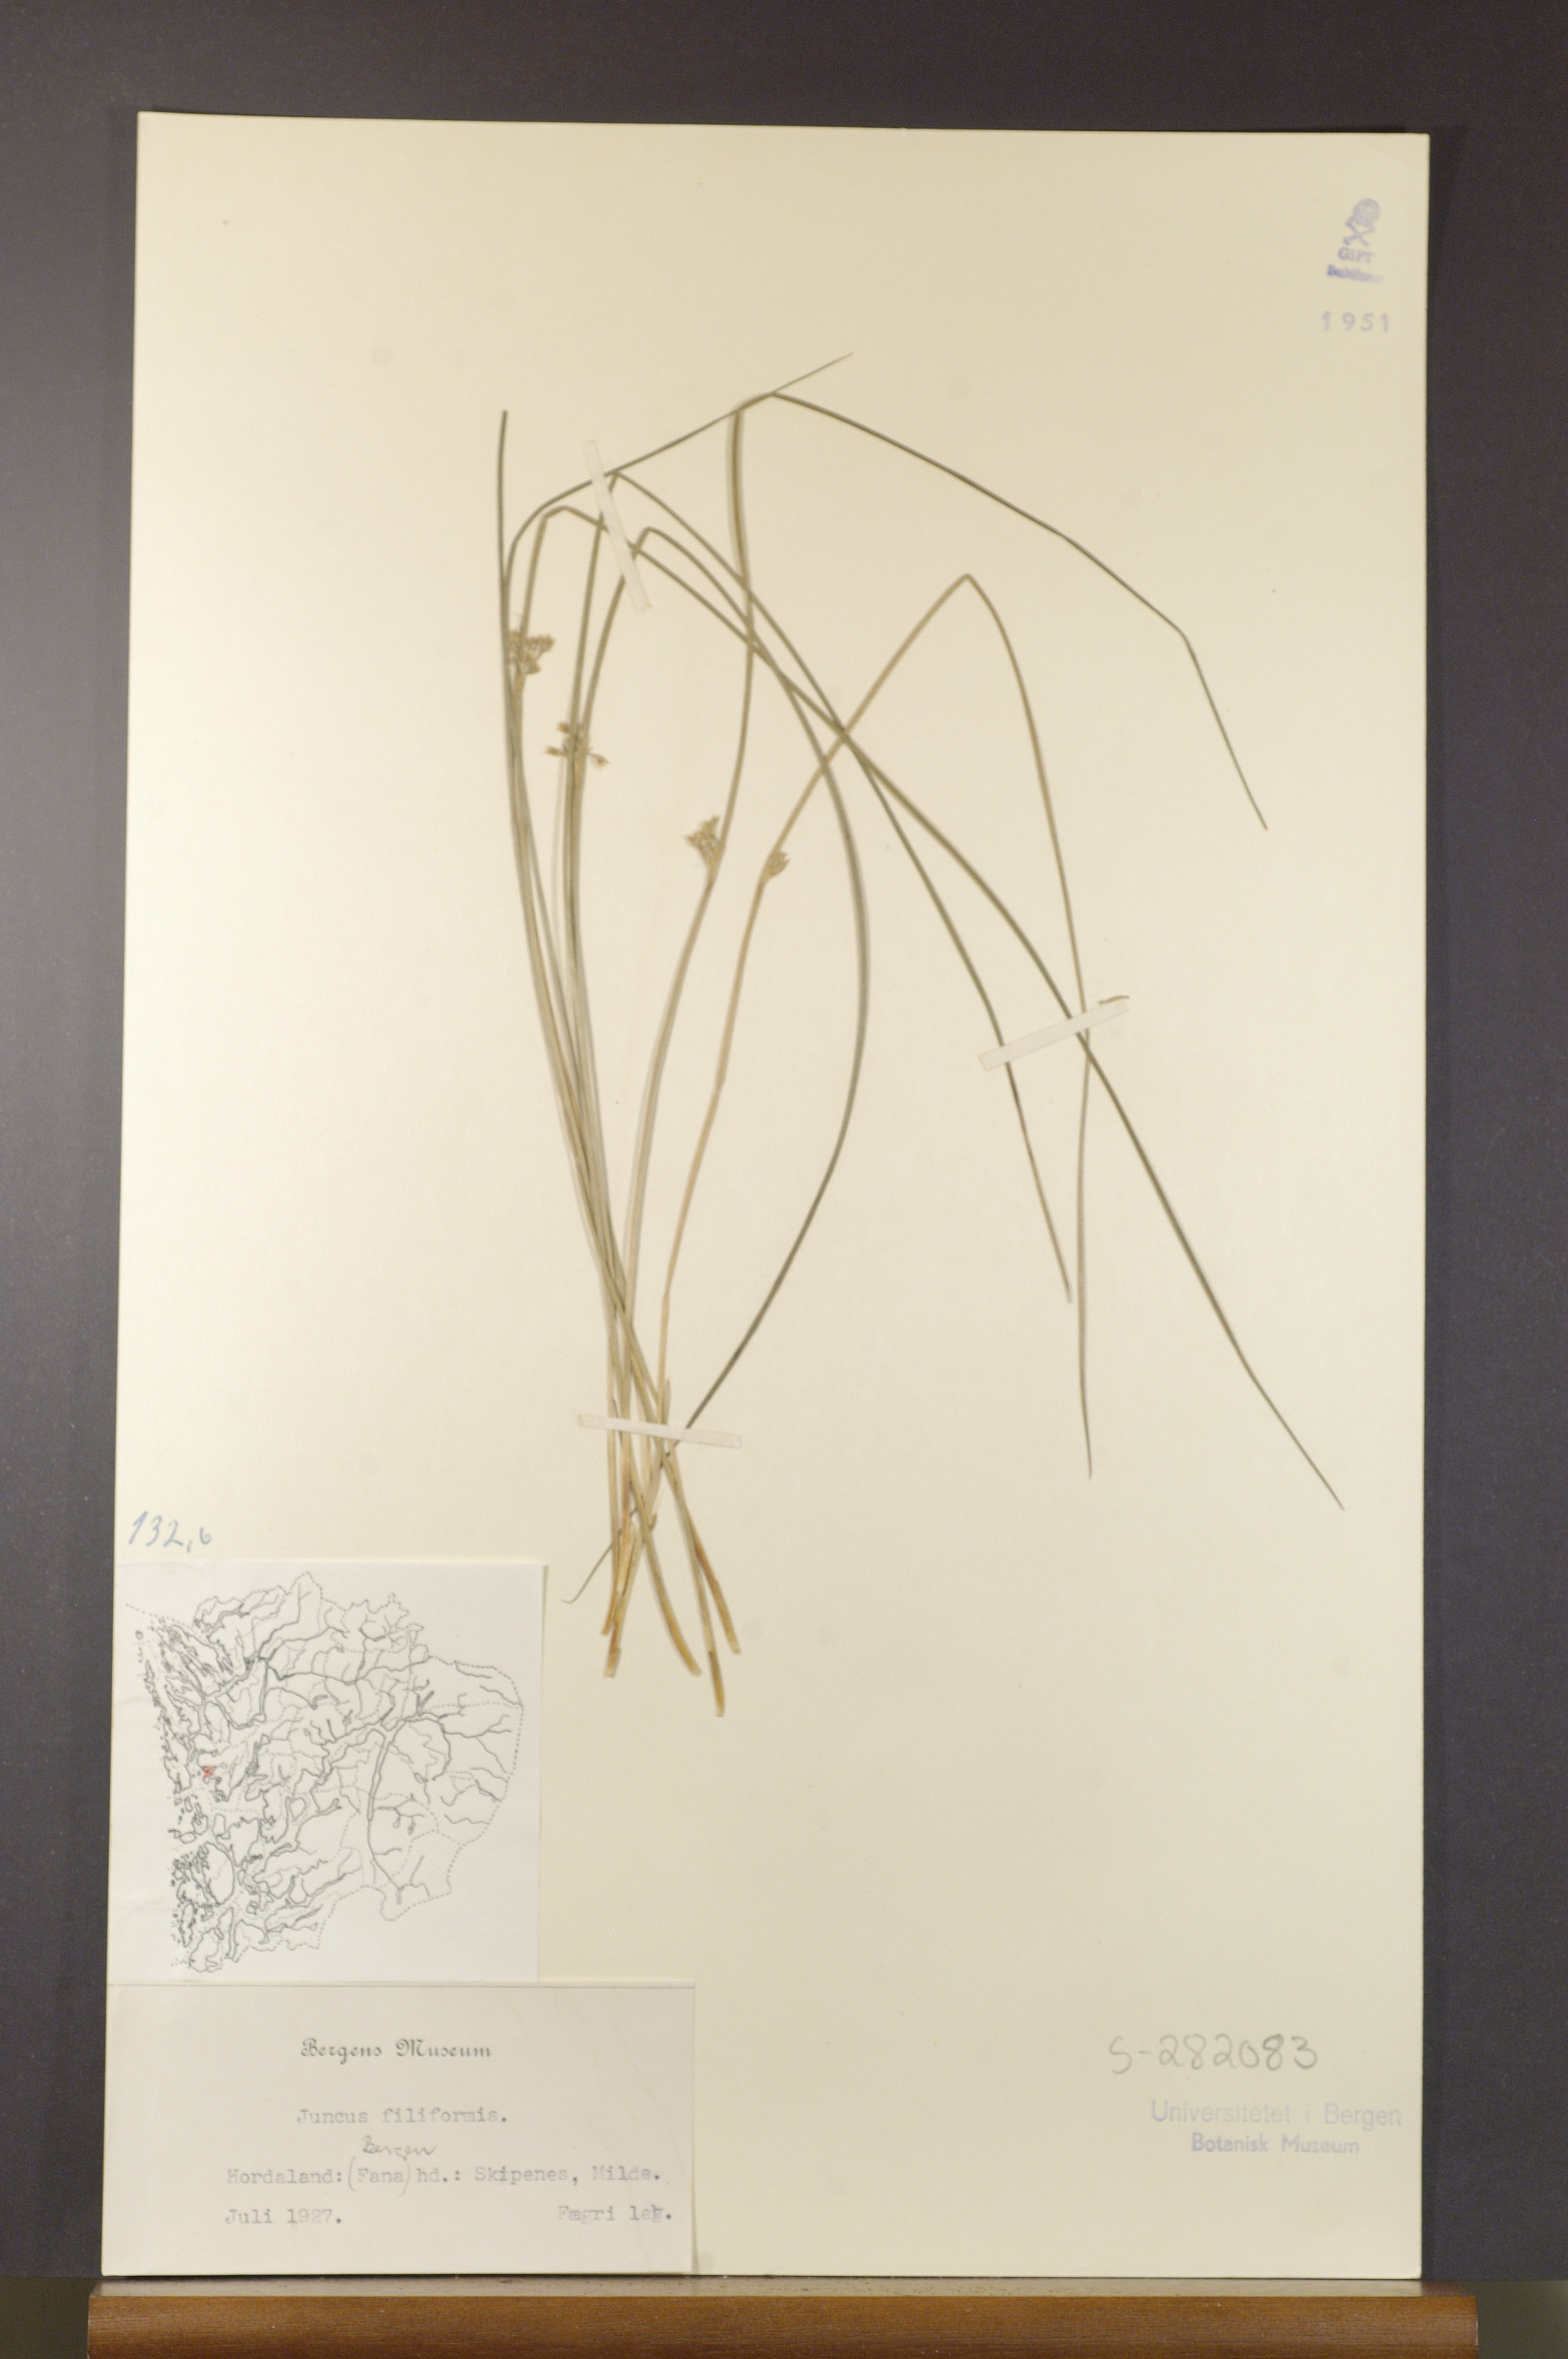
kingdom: Plantae
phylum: Tracheophyta
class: Liliopsida
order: Poales
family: Juncaceae
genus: Juncus
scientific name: Juncus filiformis
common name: Thread rush
